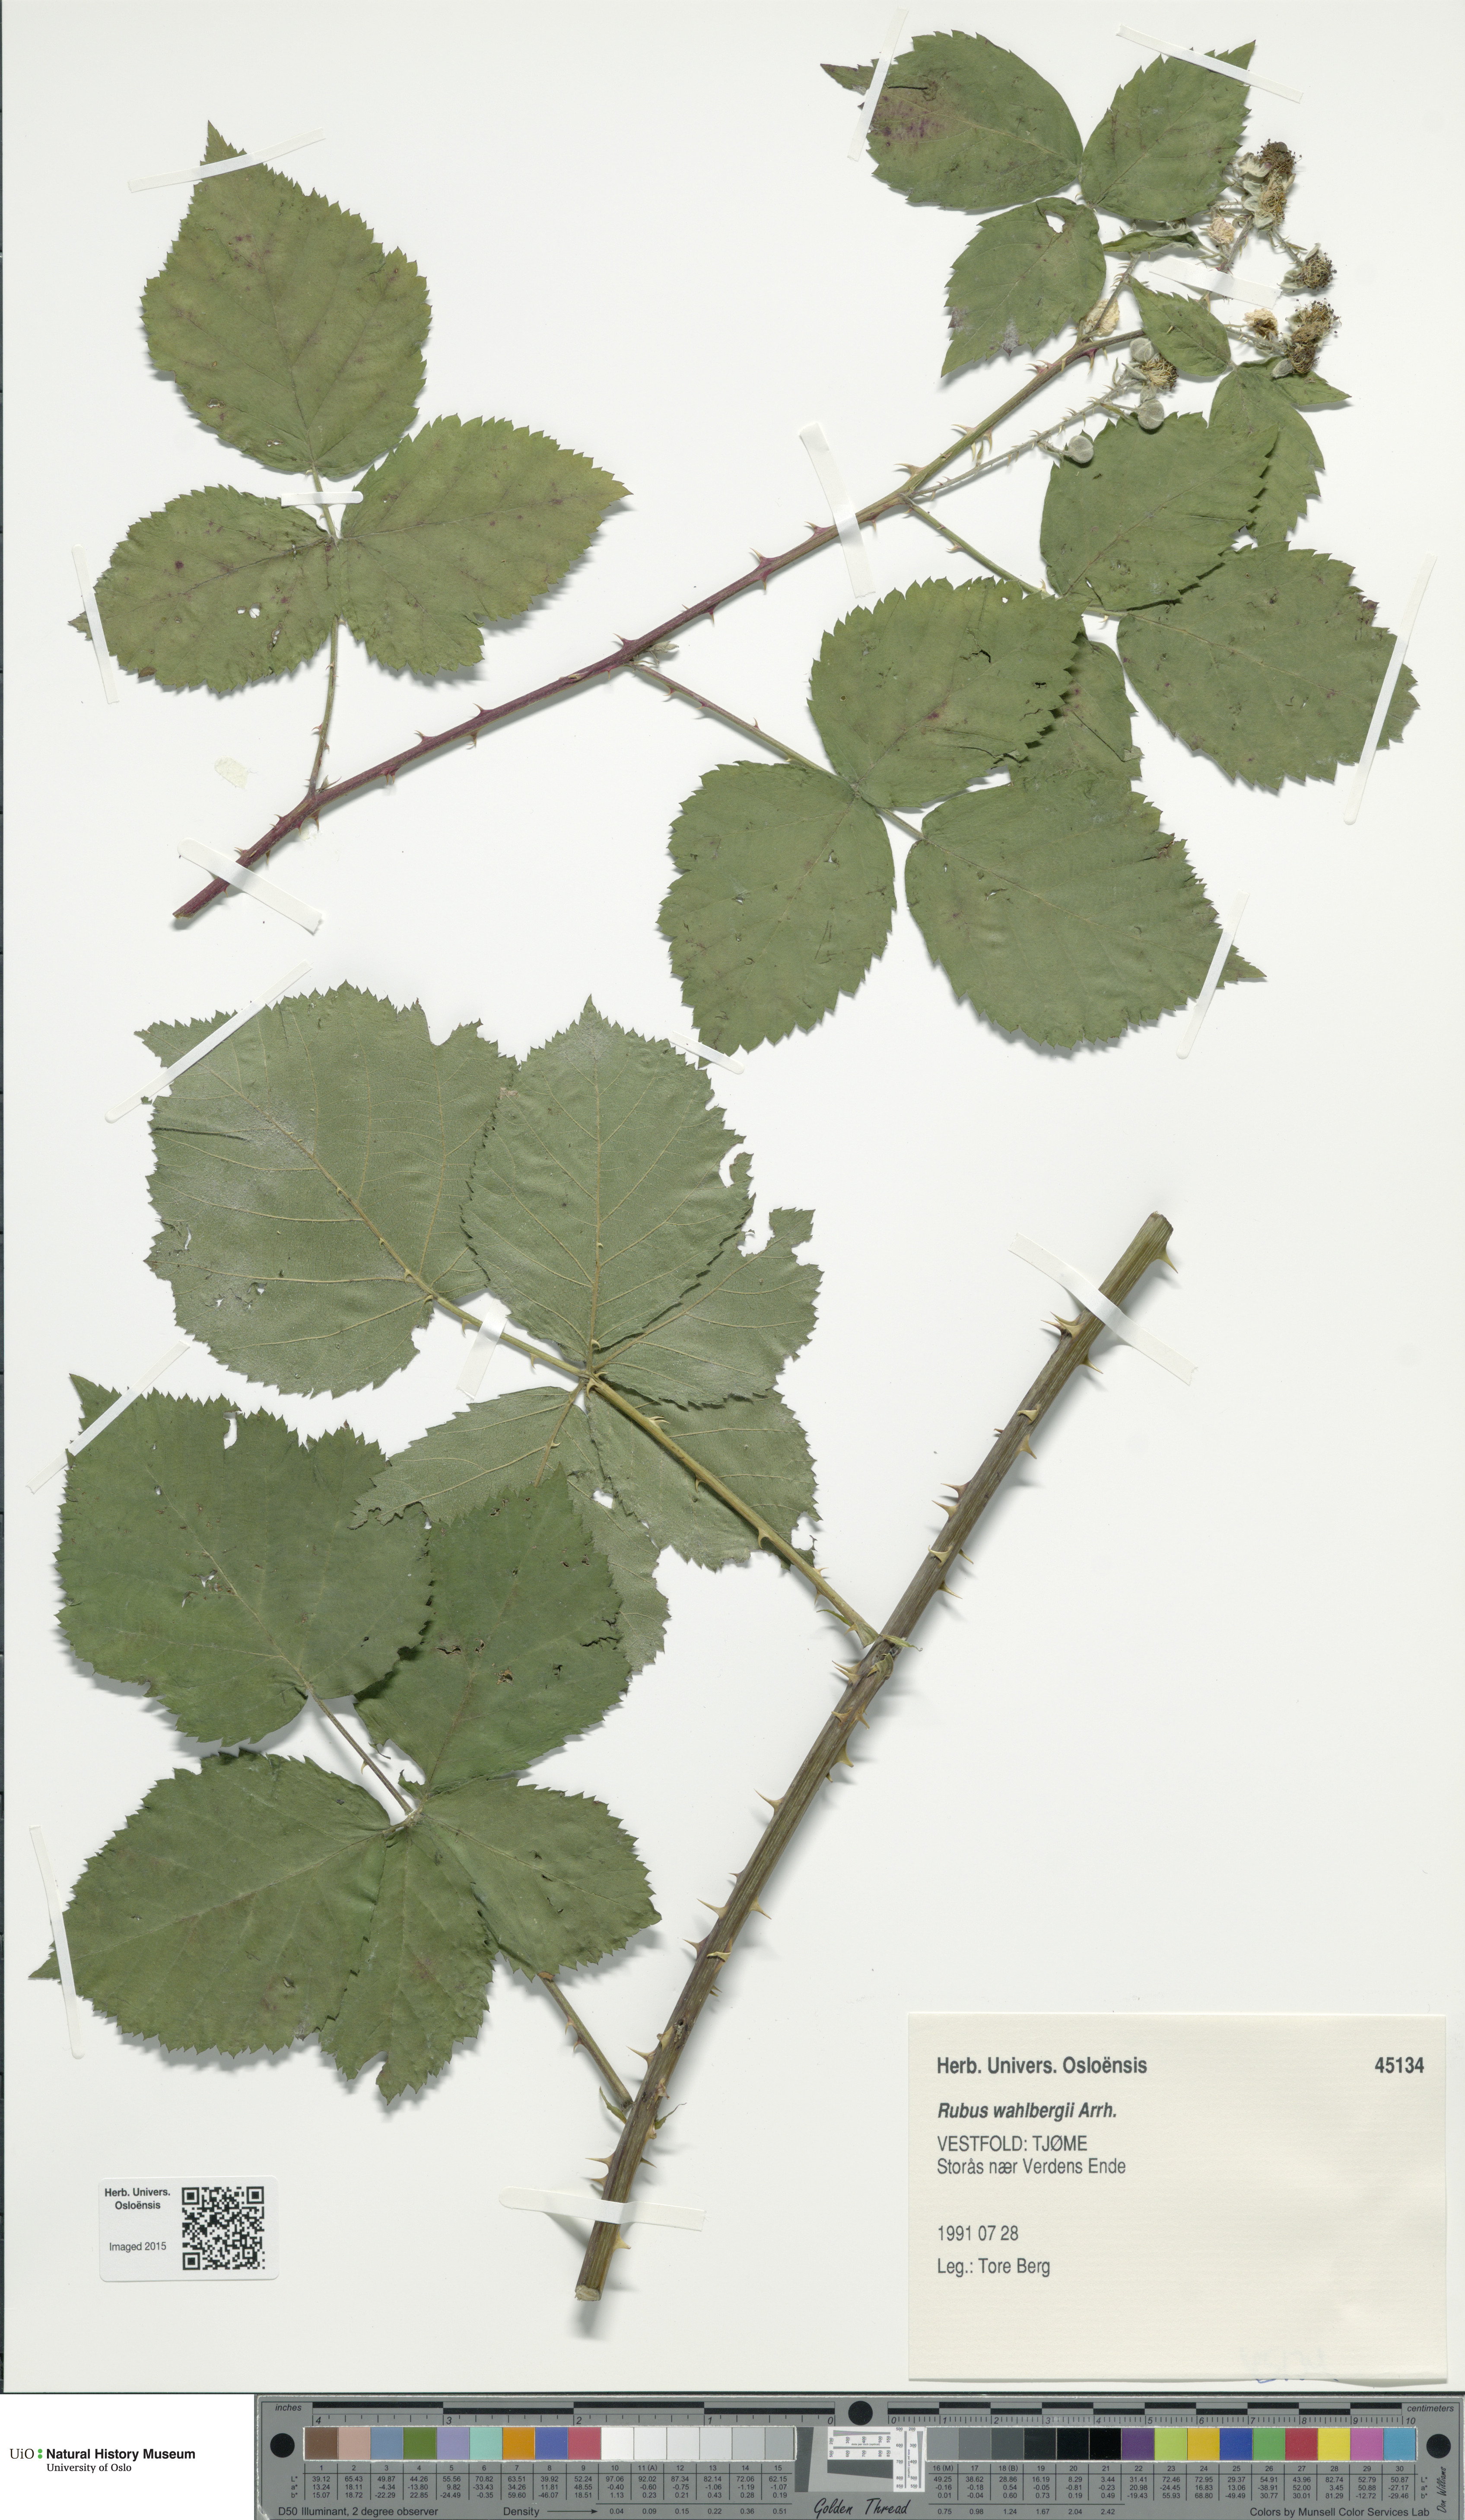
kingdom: Plantae
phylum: Tracheophyta
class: Magnoliopsida
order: Rosales
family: Rosaceae
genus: Rubus
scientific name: Rubus wahlbergii
